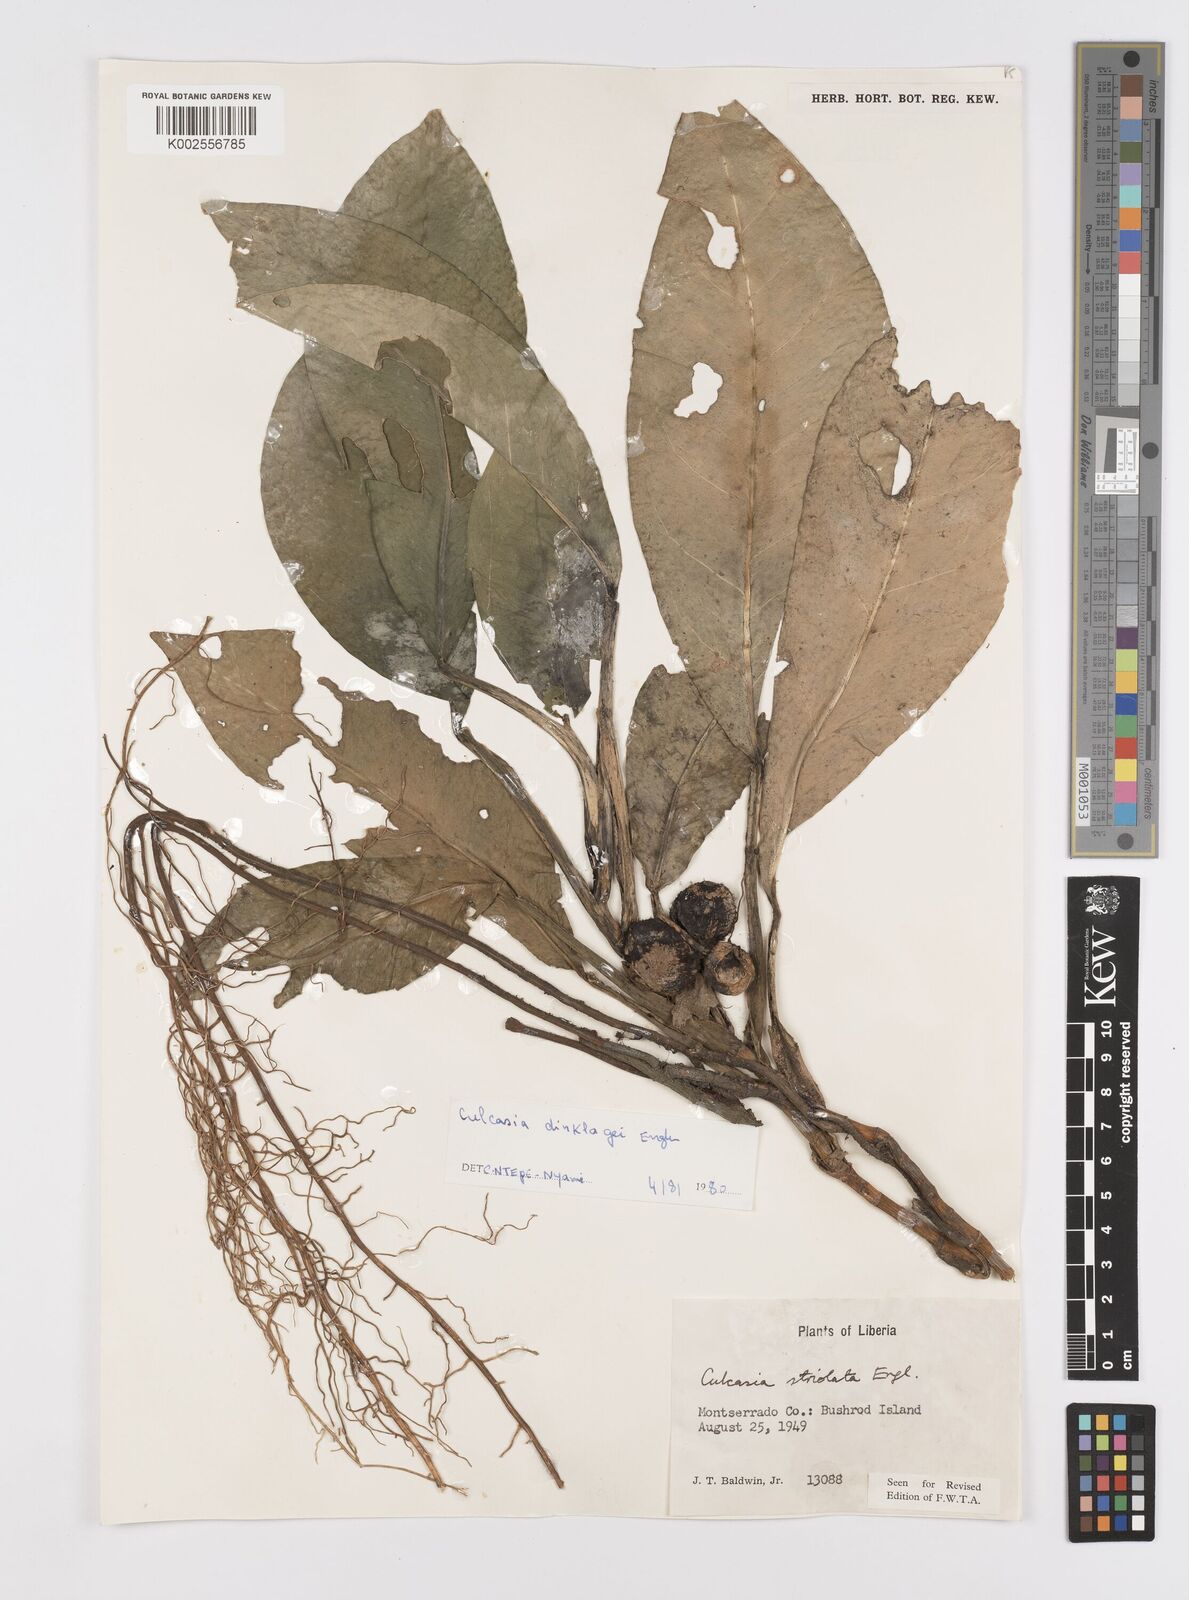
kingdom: Plantae
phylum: Tracheophyta
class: Liliopsida
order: Alismatales
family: Araceae
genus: Culcasia
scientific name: Culcasia dinklagei
